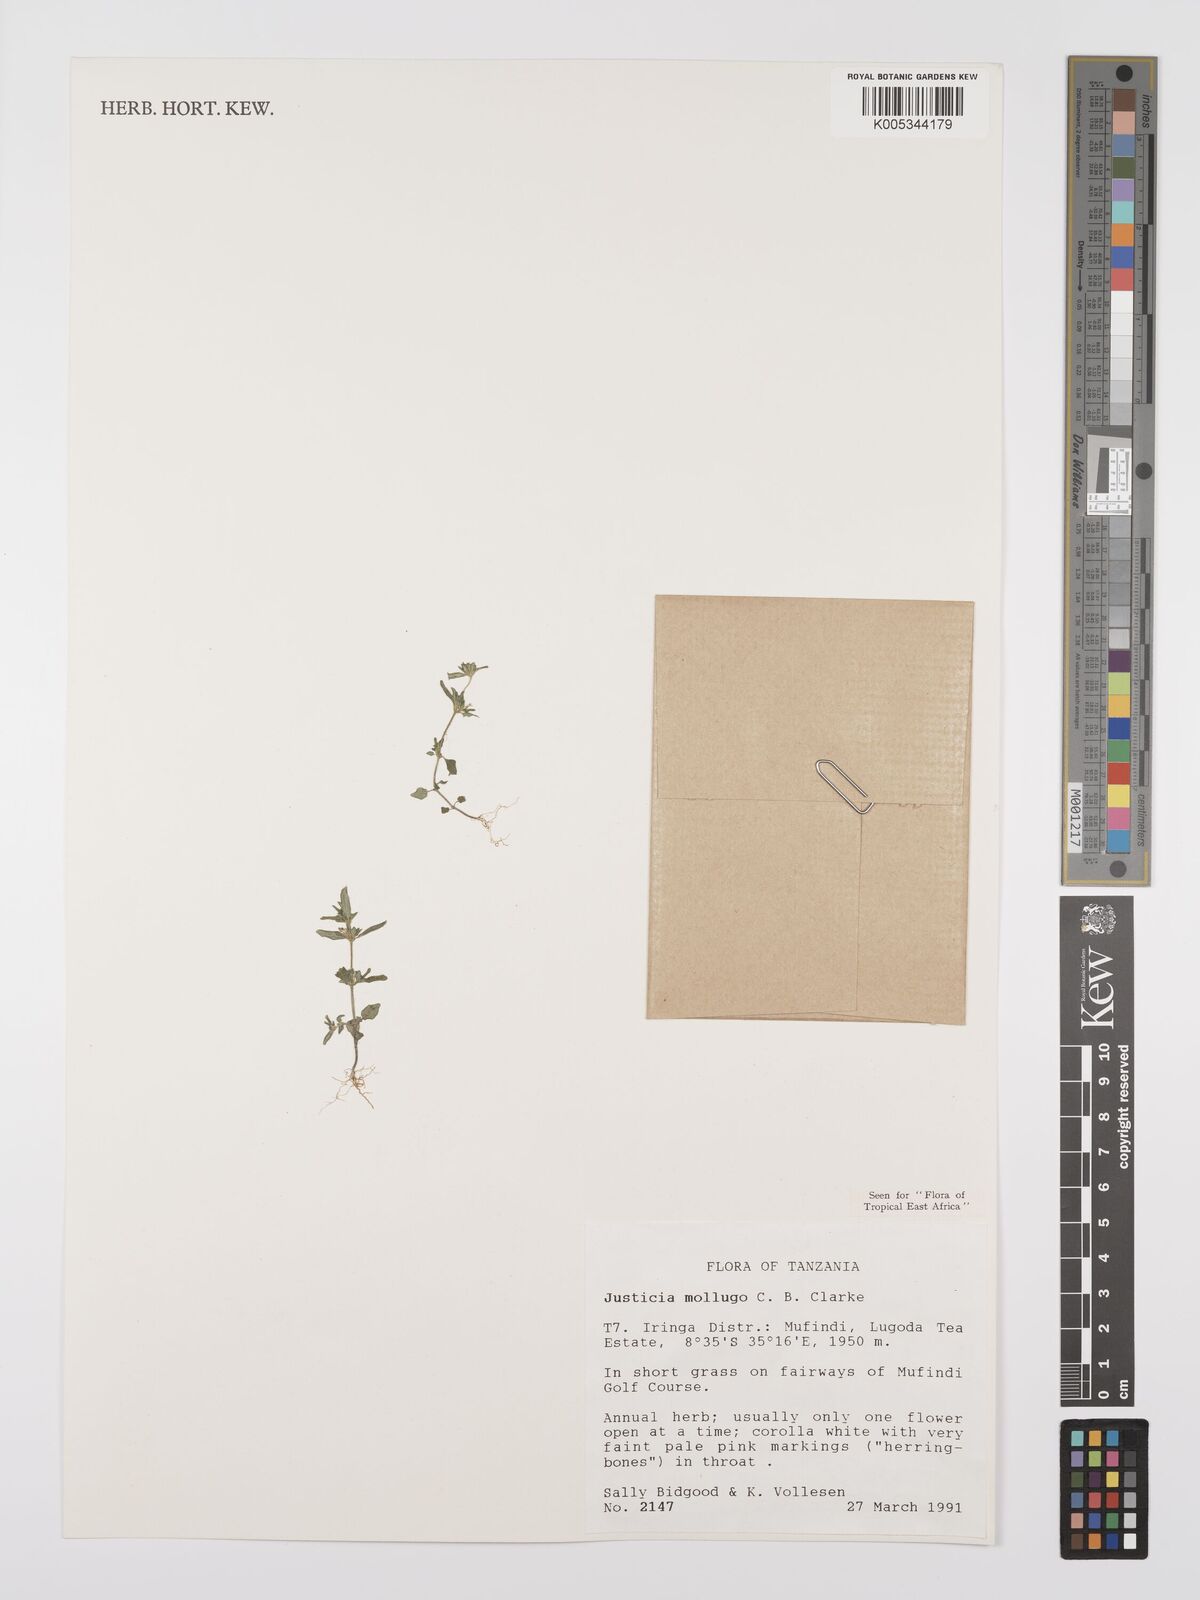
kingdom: Plantae
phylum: Tracheophyta
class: Magnoliopsida
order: Lamiales
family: Acanthaceae
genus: Justicia
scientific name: Justicia mollugo
